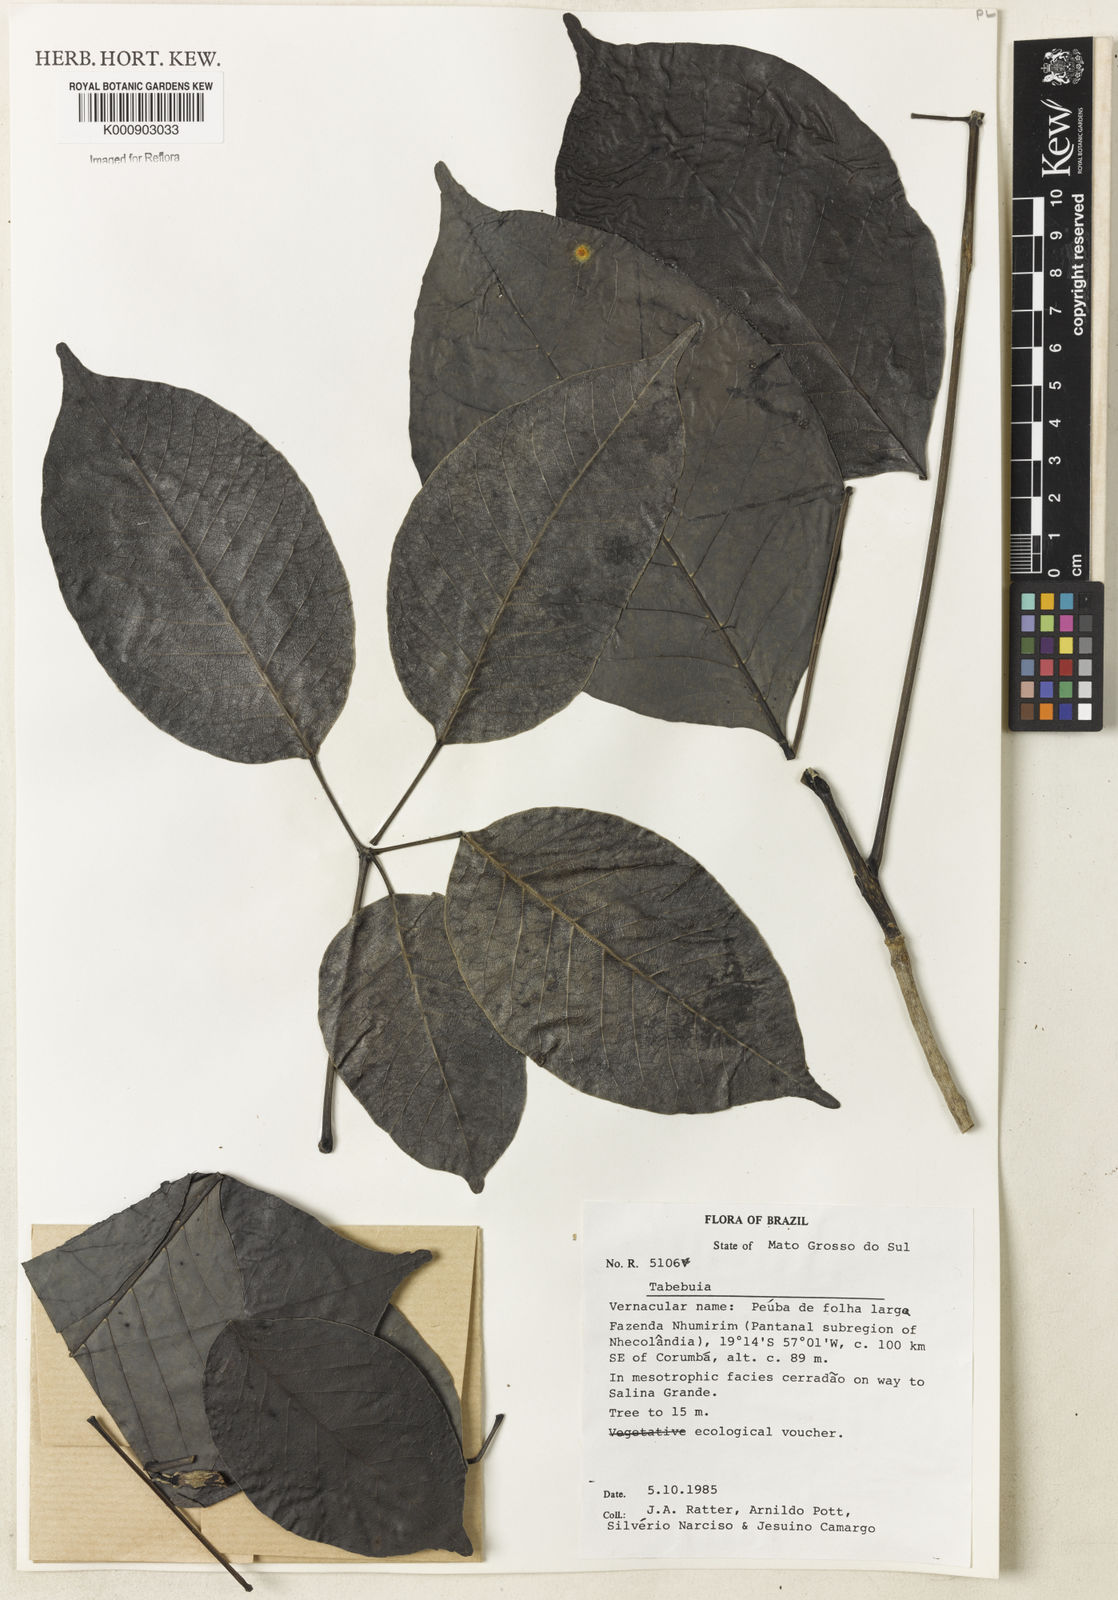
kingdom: Plantae
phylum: Tracheophyta
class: Magnoliopsida
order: Lamiales
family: Bignoniaceae
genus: Tabebuia
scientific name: Tabebuia
